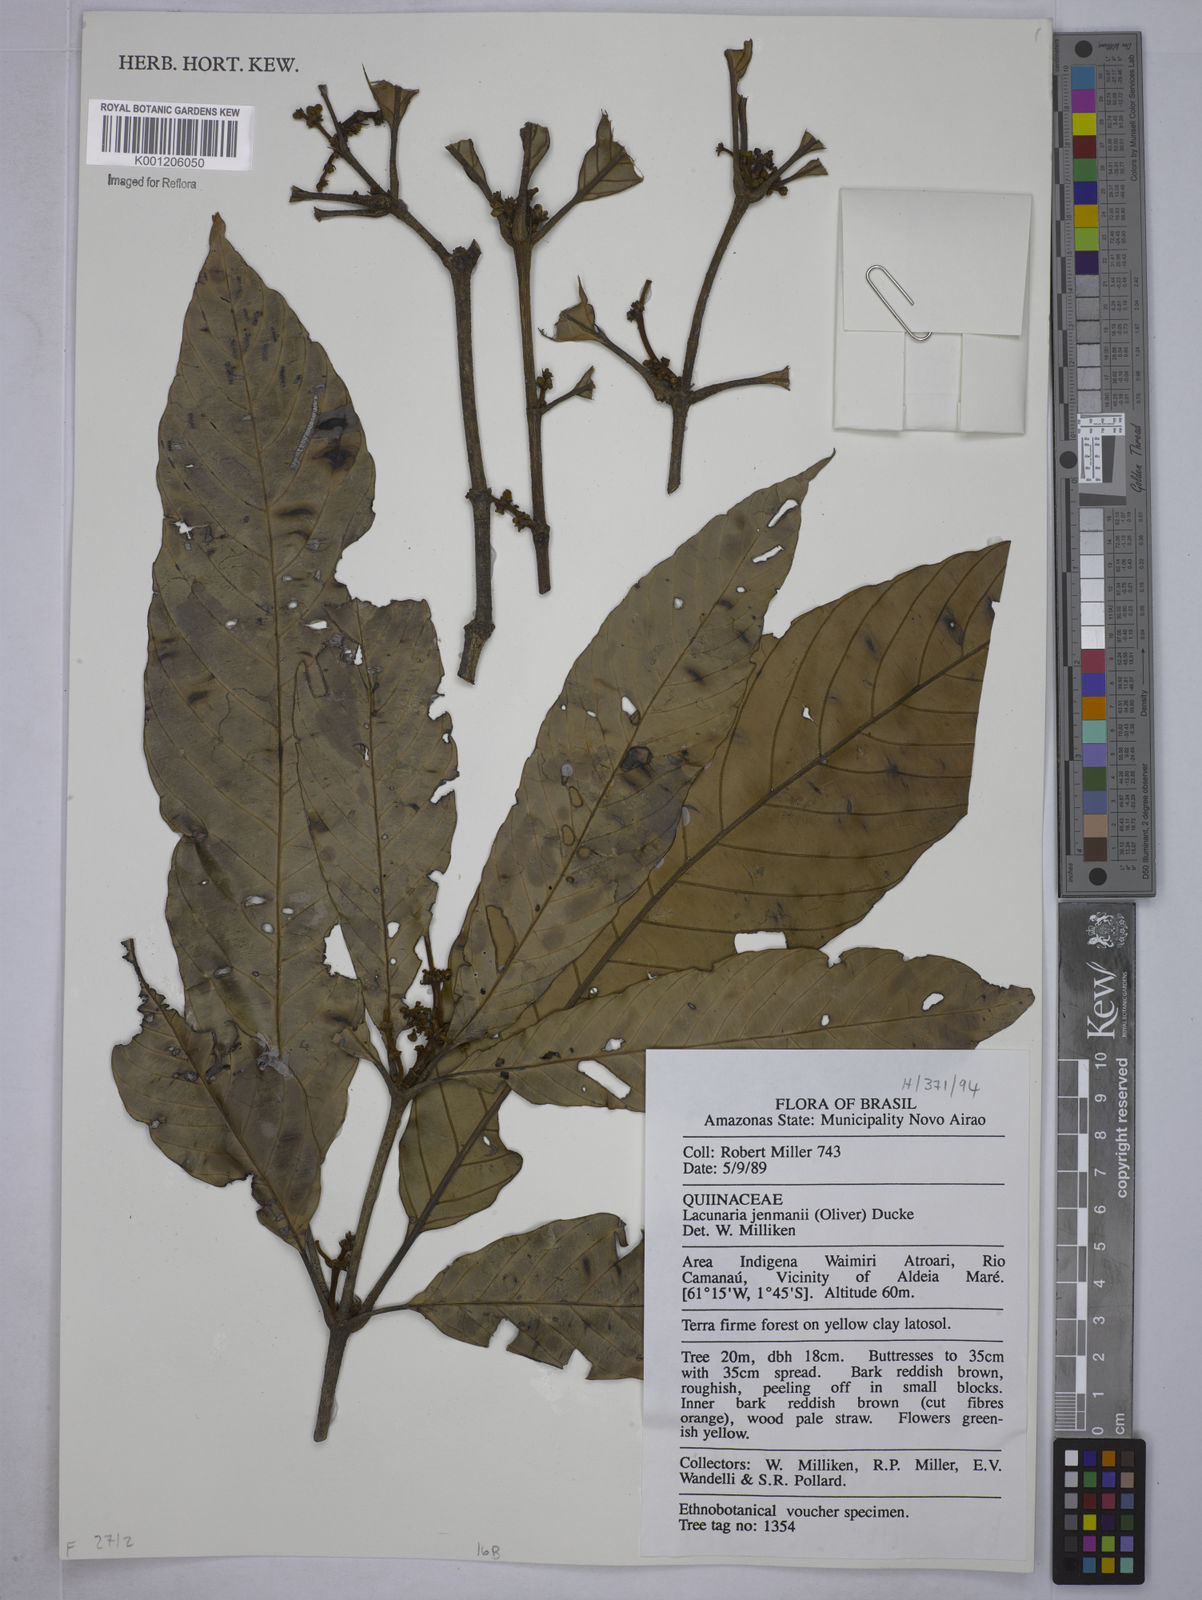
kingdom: Plantae
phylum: Tracheophyta
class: Magnoliopsida
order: Malpighiales
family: Quiinaceae
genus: Lacunaria
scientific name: Lacunaria jenmanii
